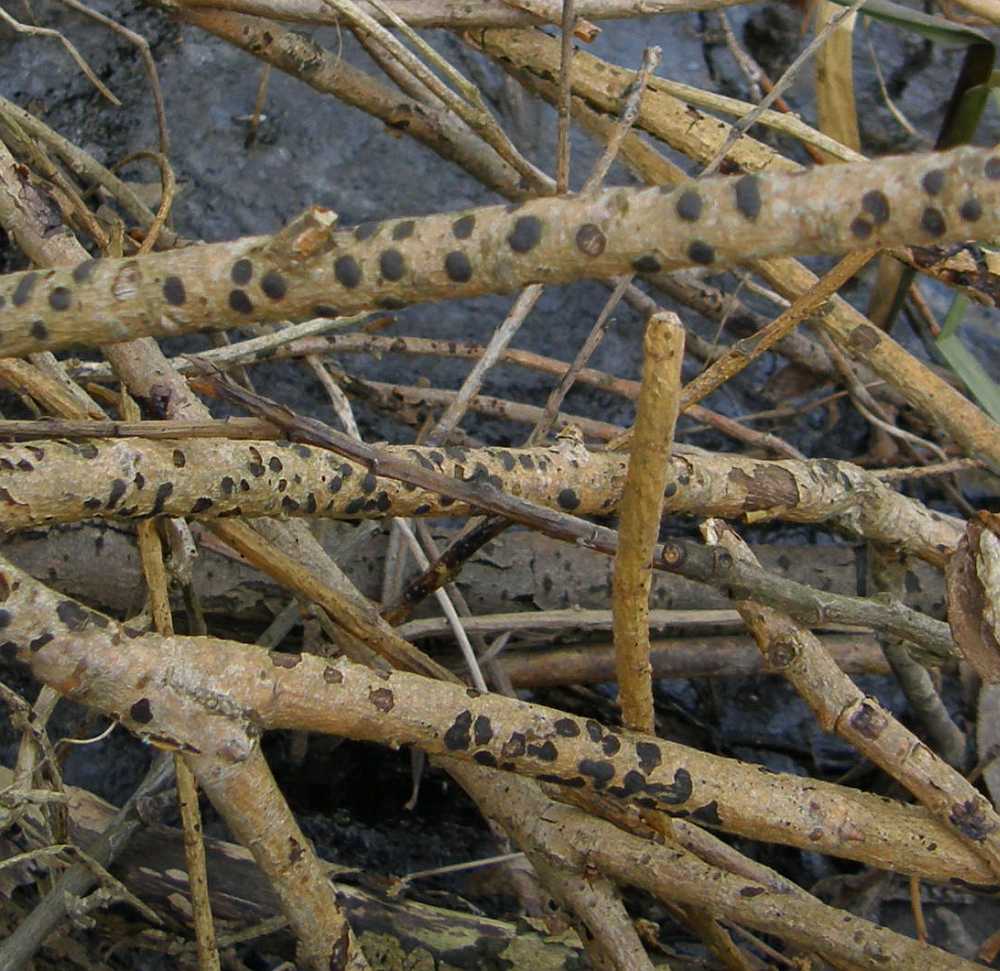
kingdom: Fungi
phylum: Ascomycota
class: Sordariomycetes
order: Xylariales
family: Diatrypaceae
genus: Diatrype
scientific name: Diatrype bullata
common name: pile-kulskorpe
